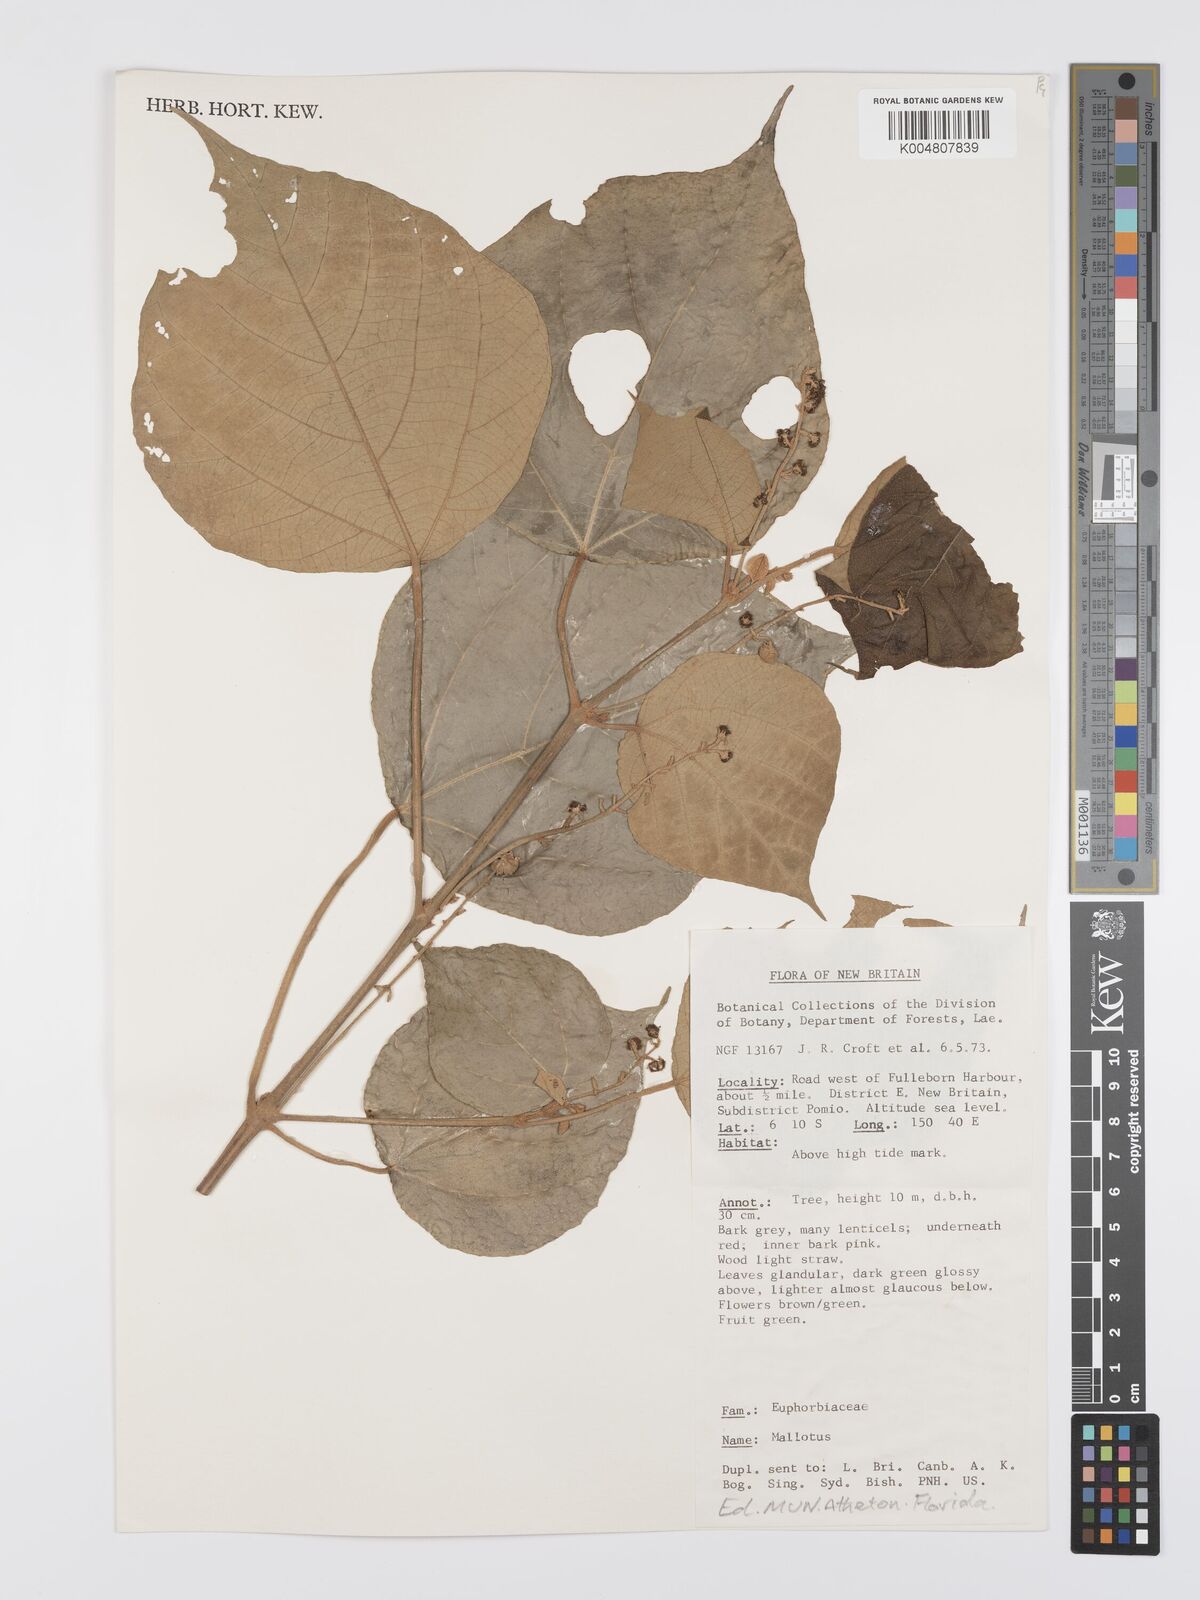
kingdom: Plantae
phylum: Tracheophyta
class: Magnoliopsida
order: Malpighiales
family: Euphorbiaceae
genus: Mallotus
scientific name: Mallotus tiliifolius
